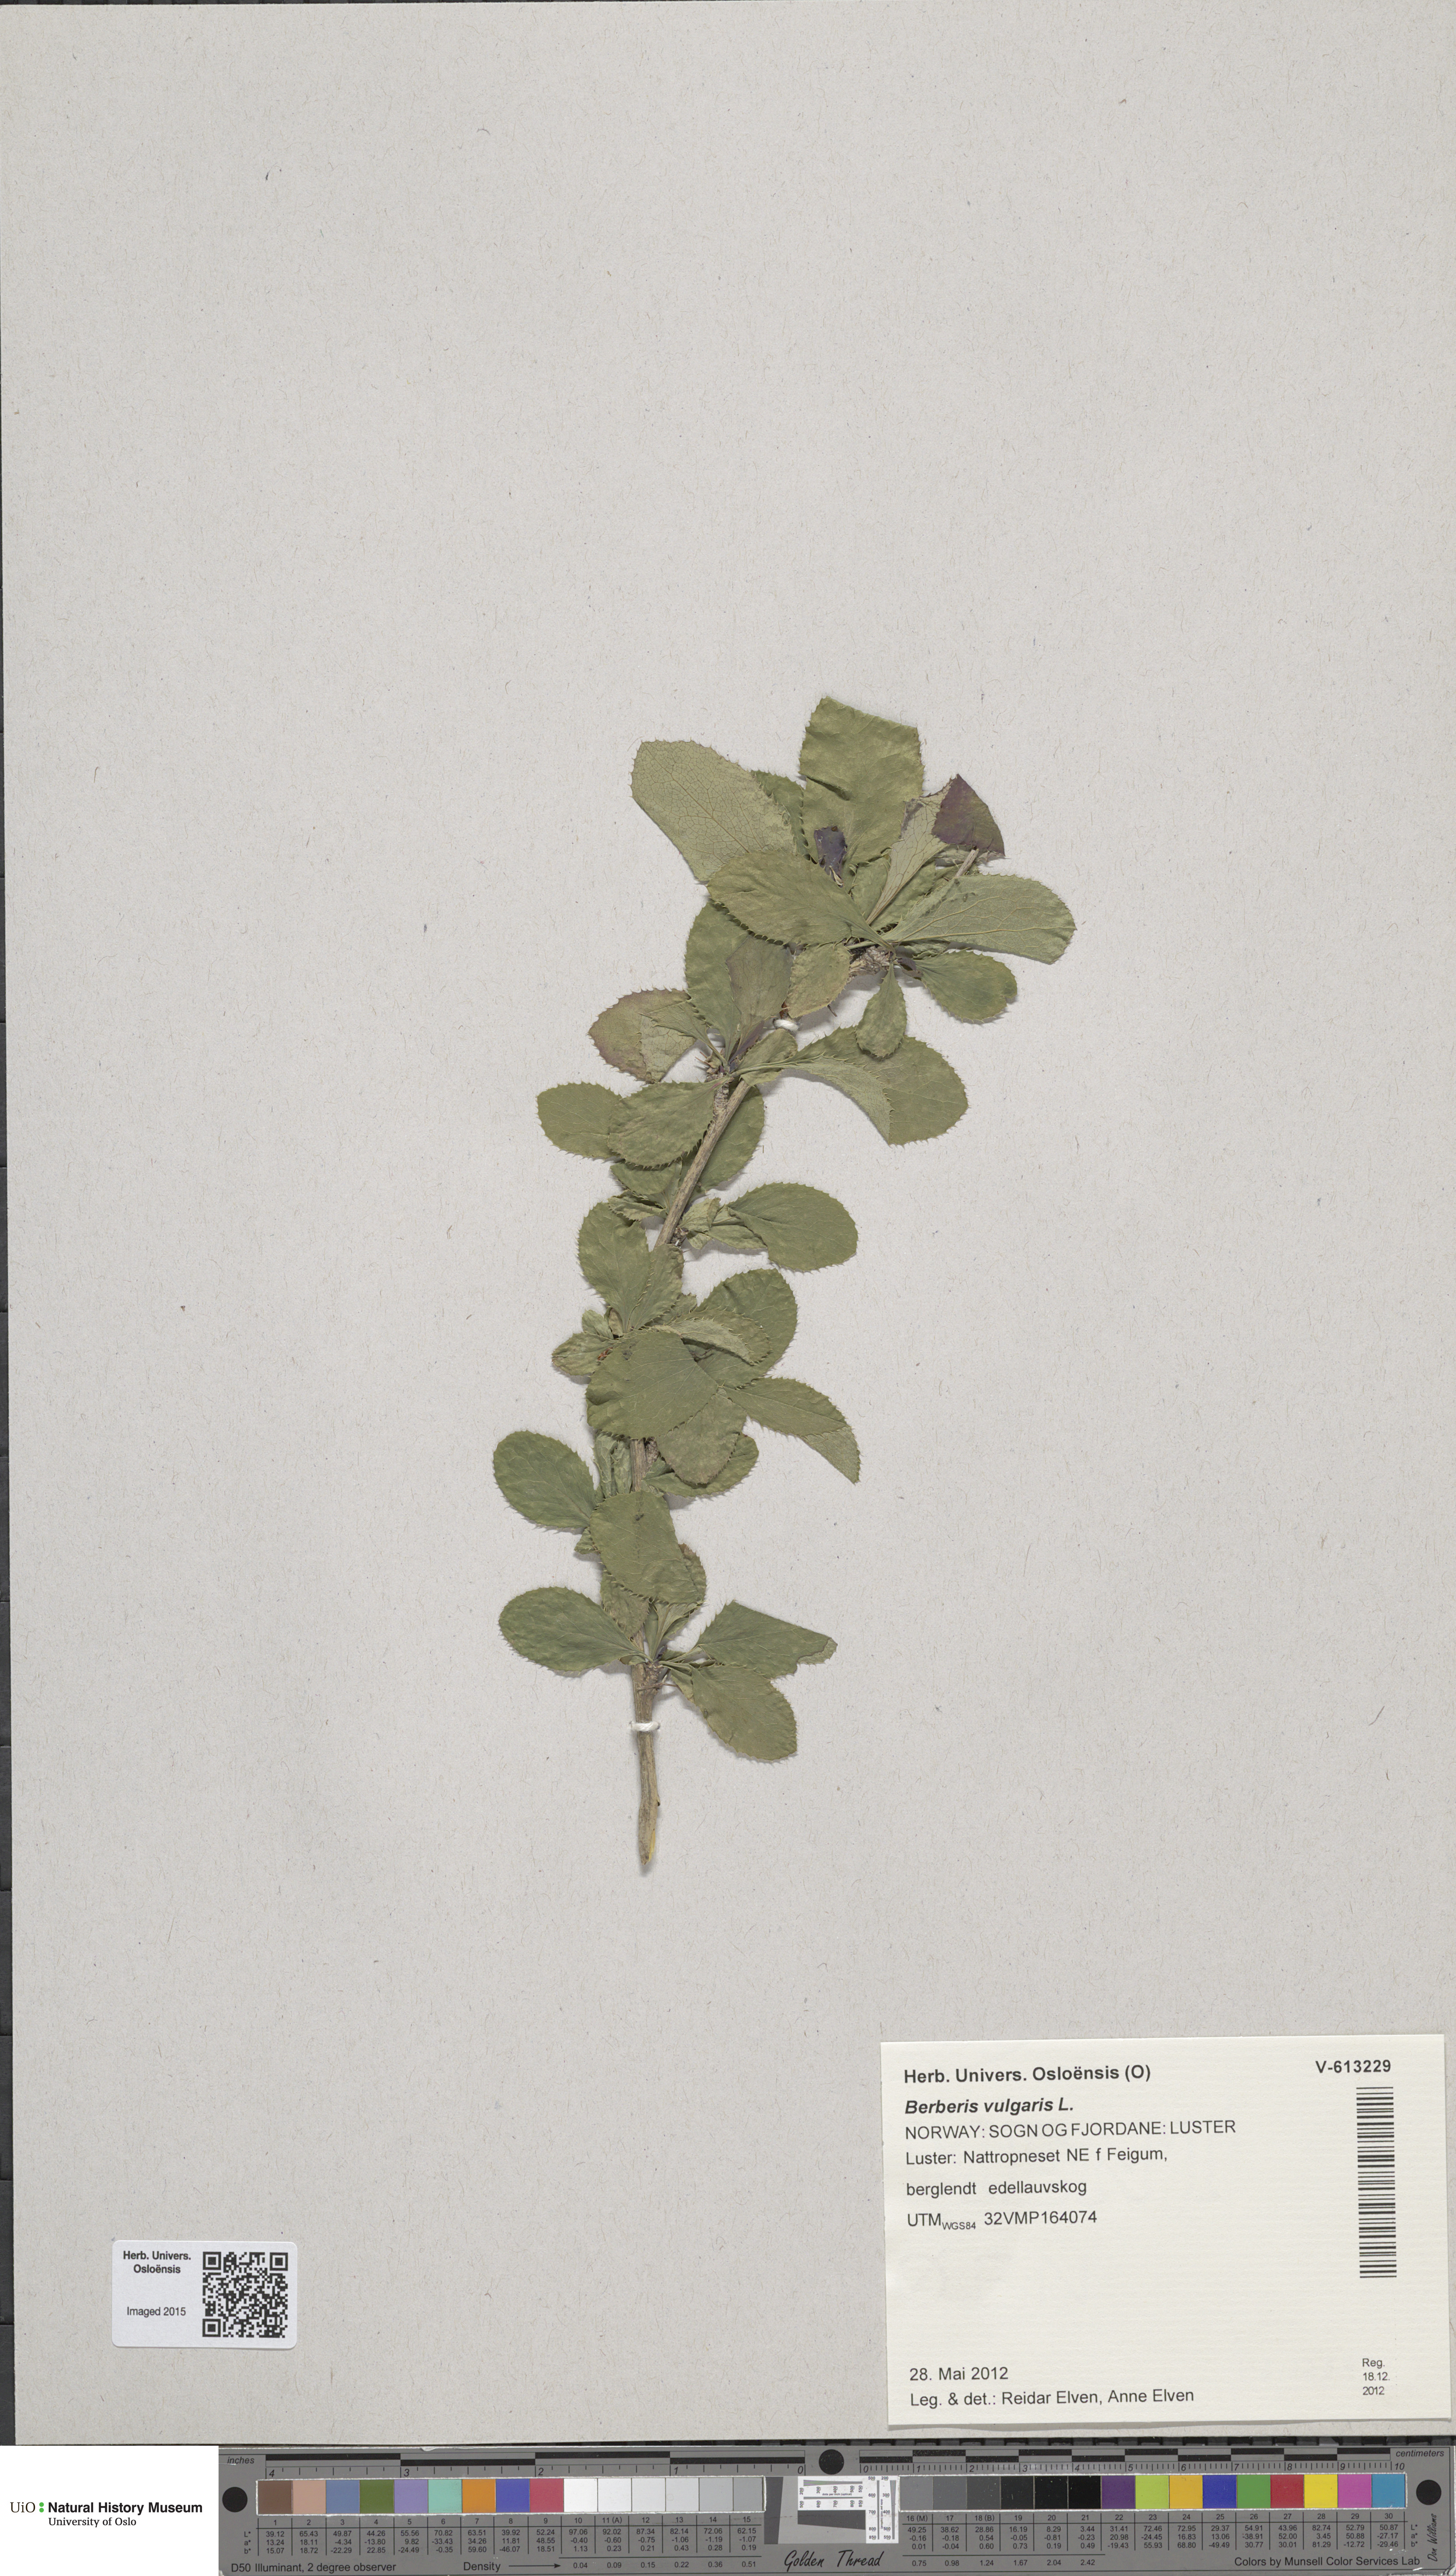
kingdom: Plantae
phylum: Tracheophyta
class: Magnoliopsida
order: Ranunculales
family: Berberidaceae
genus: Berberis
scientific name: Berberis vulgaris
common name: Barberry
